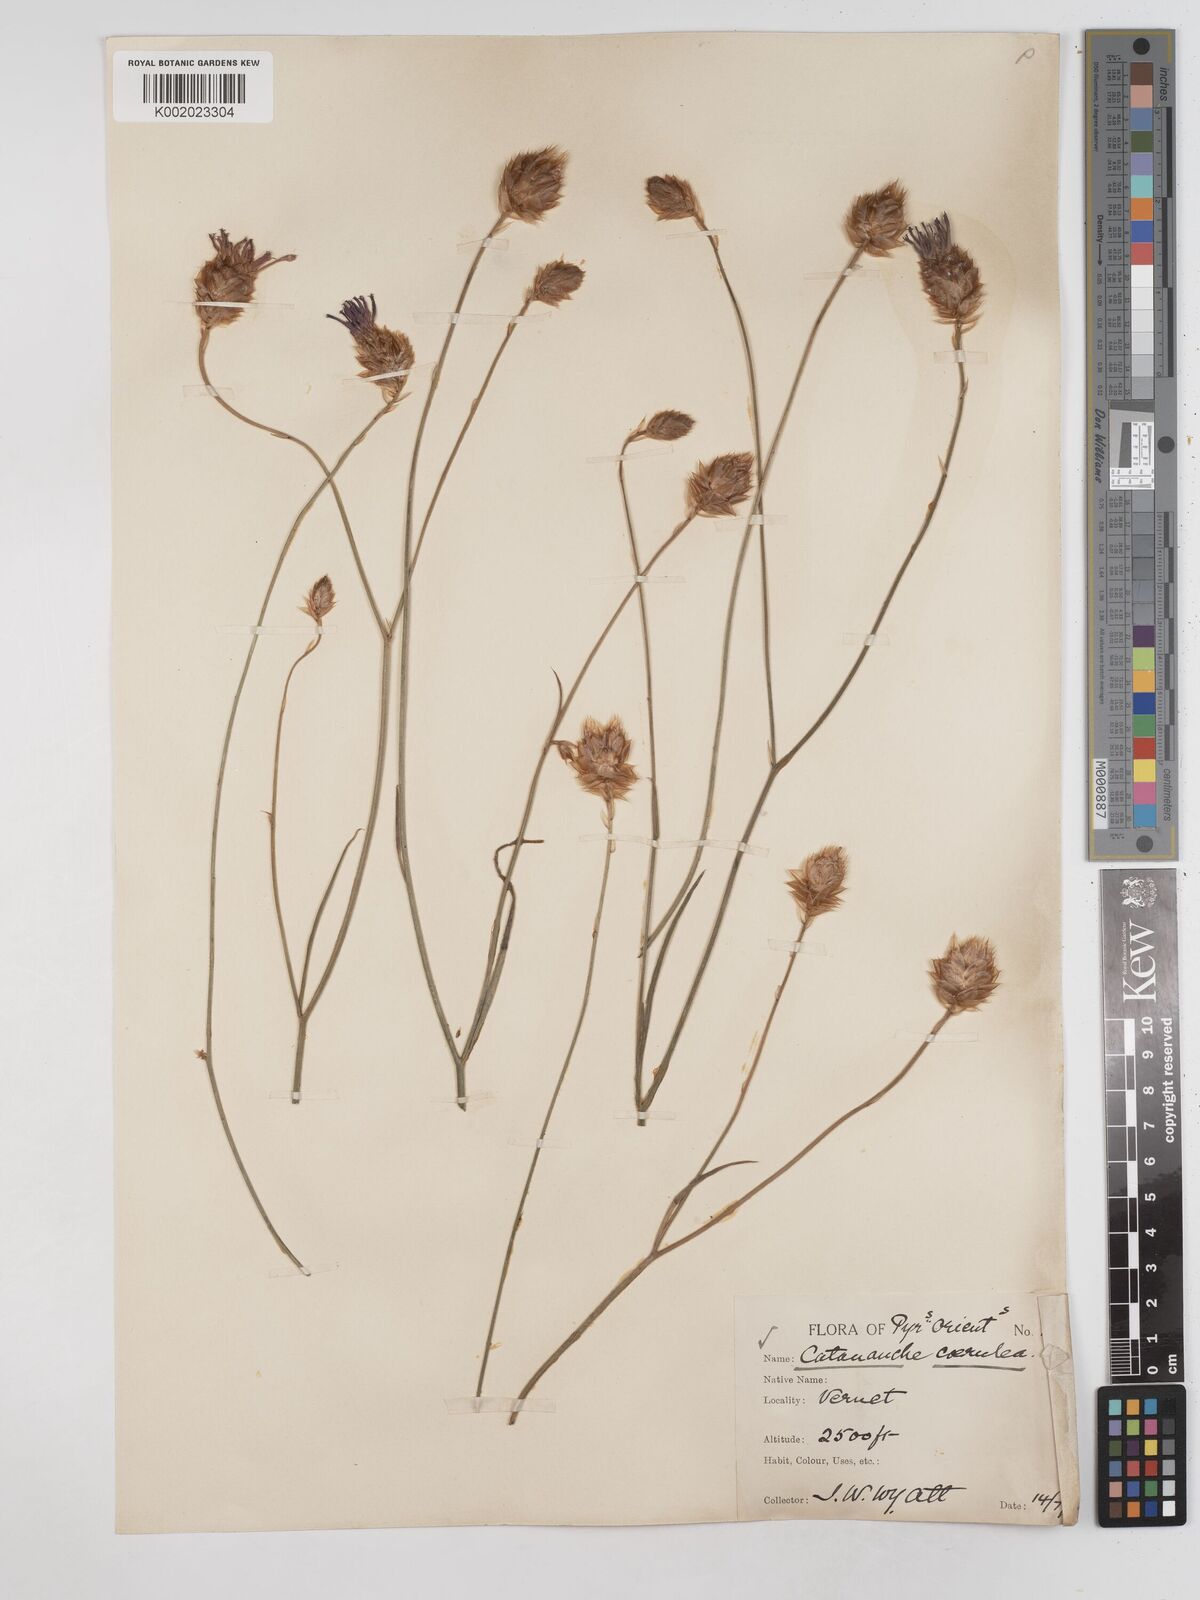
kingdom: Plantae
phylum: Tracheophyta
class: Magnoliopsida
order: Asterales
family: Asteraceae
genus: Catananche
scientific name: Catananche caerulea
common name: Blue cupidone
